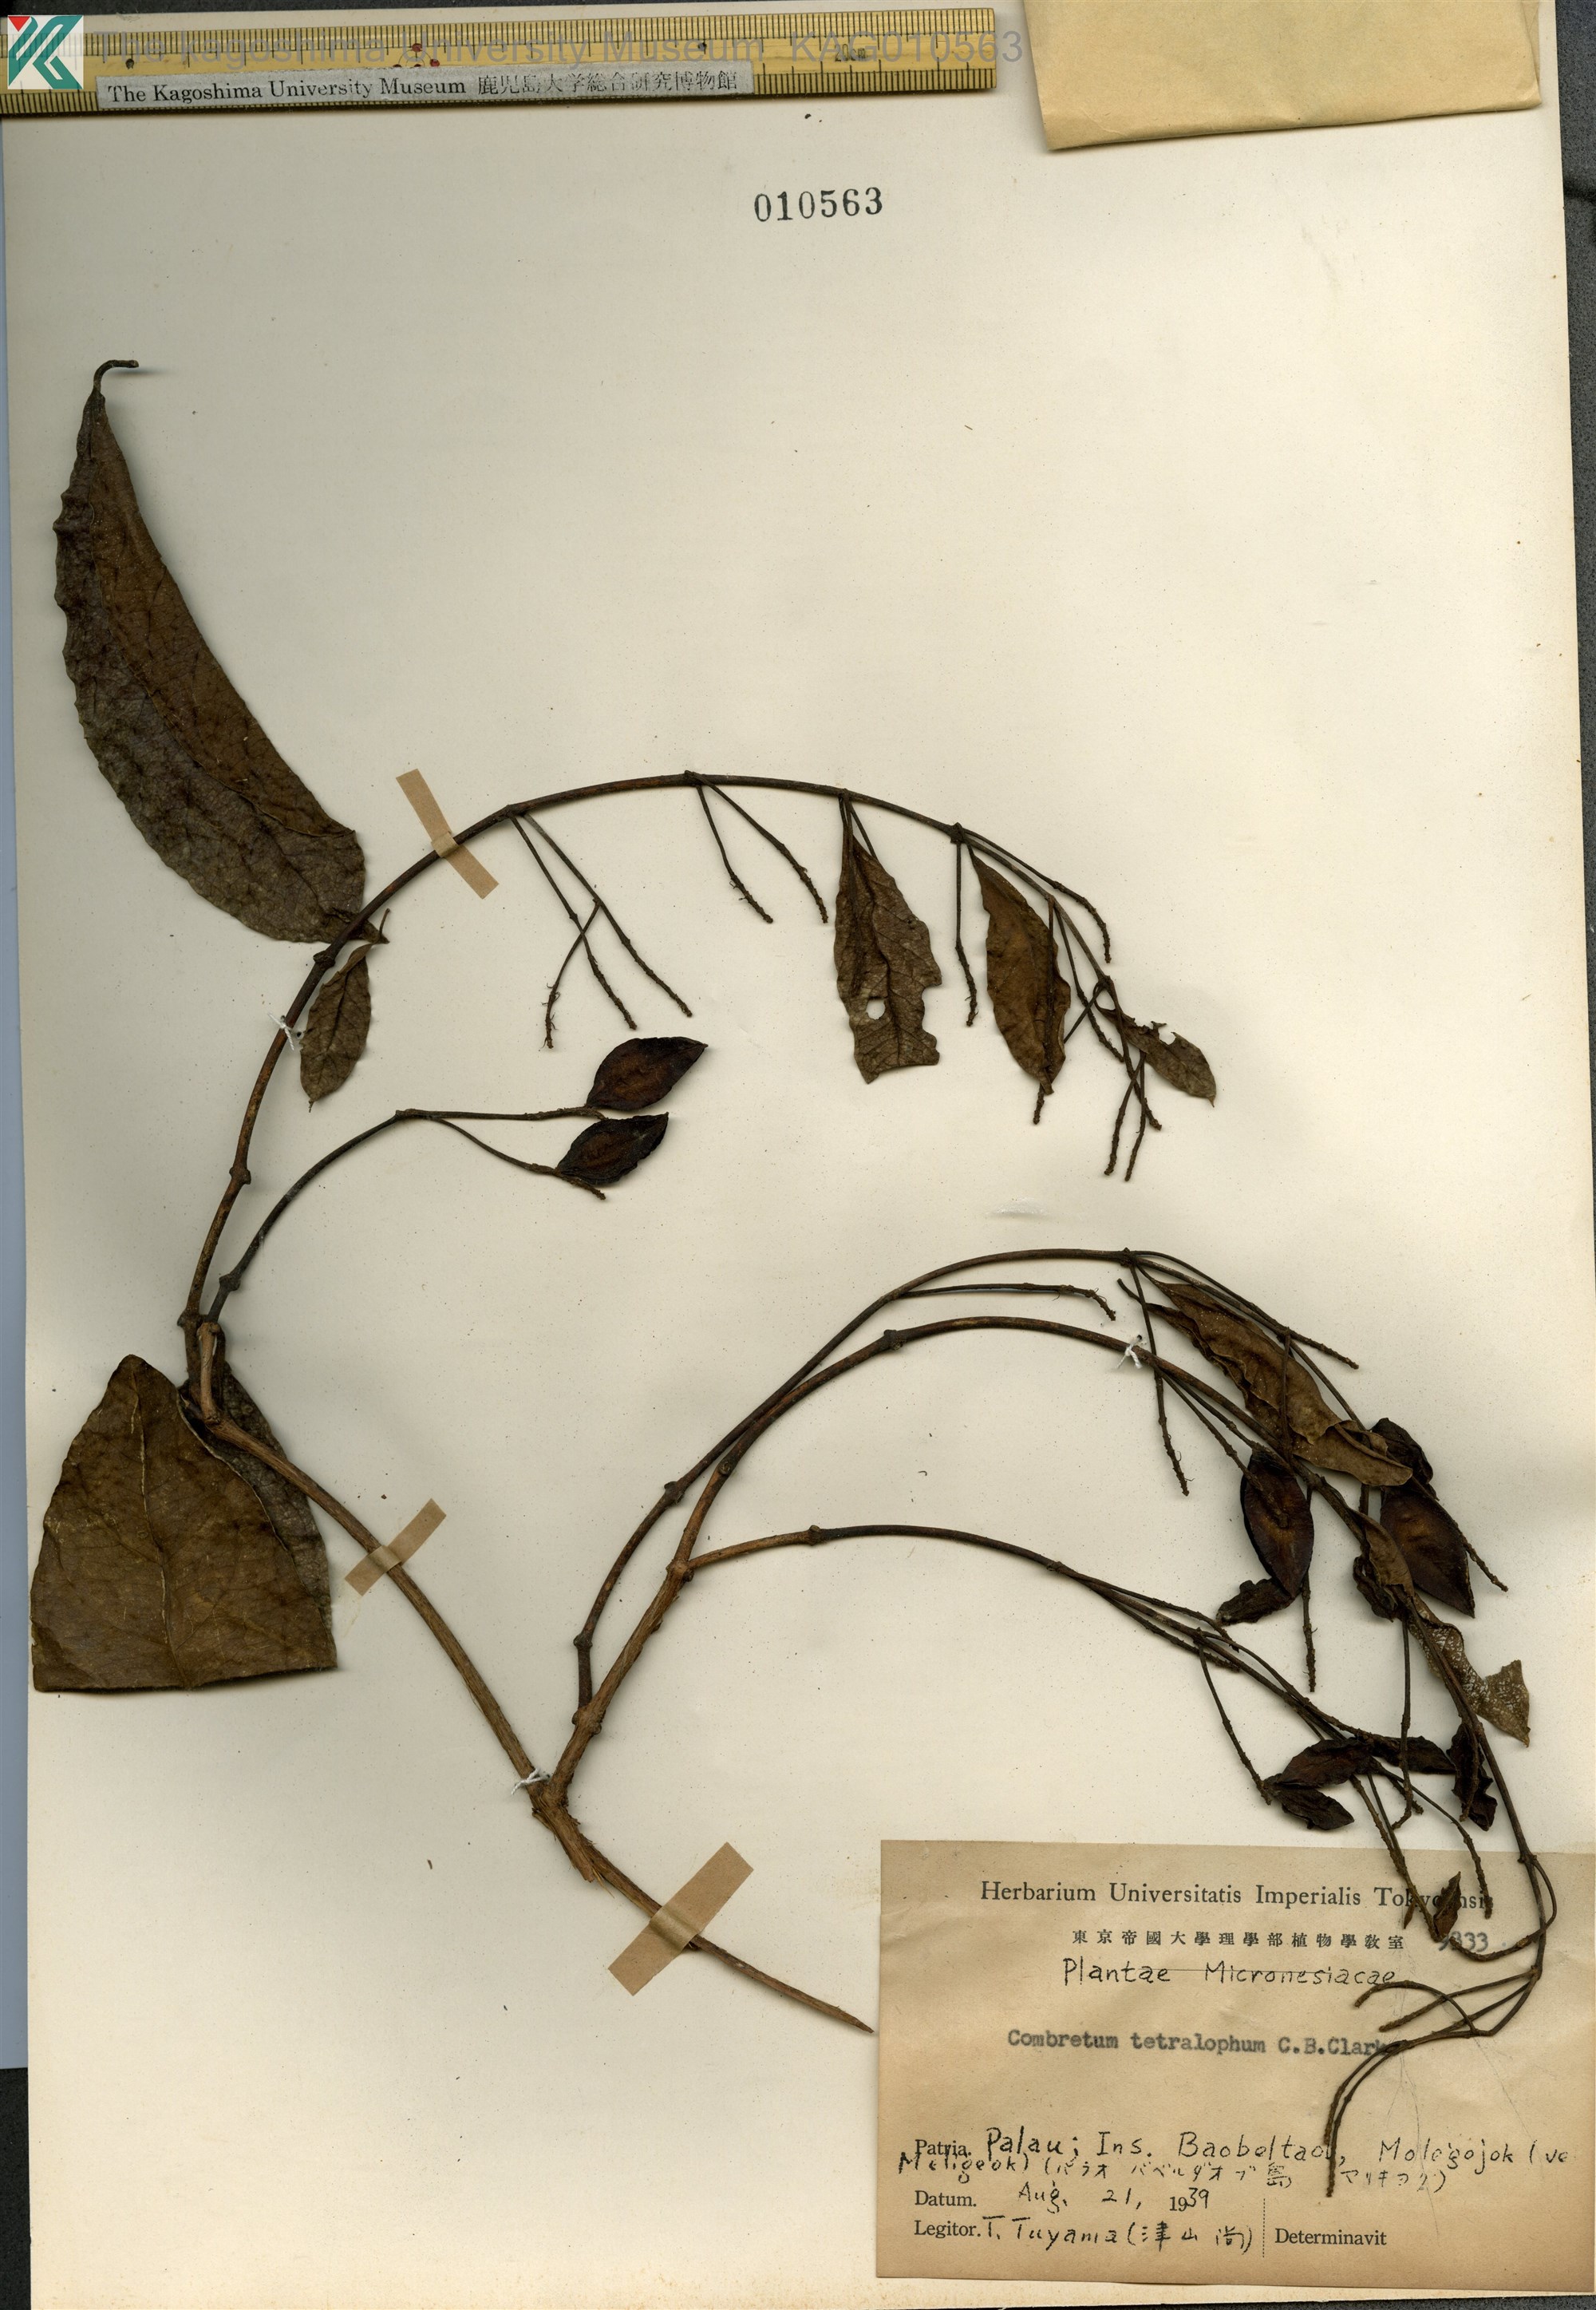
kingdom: Plantae
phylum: Tracheophyta
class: Magnoliopsida
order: Myrtales
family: Combretaceae
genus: Combretum
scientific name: Combretum tetralophum
